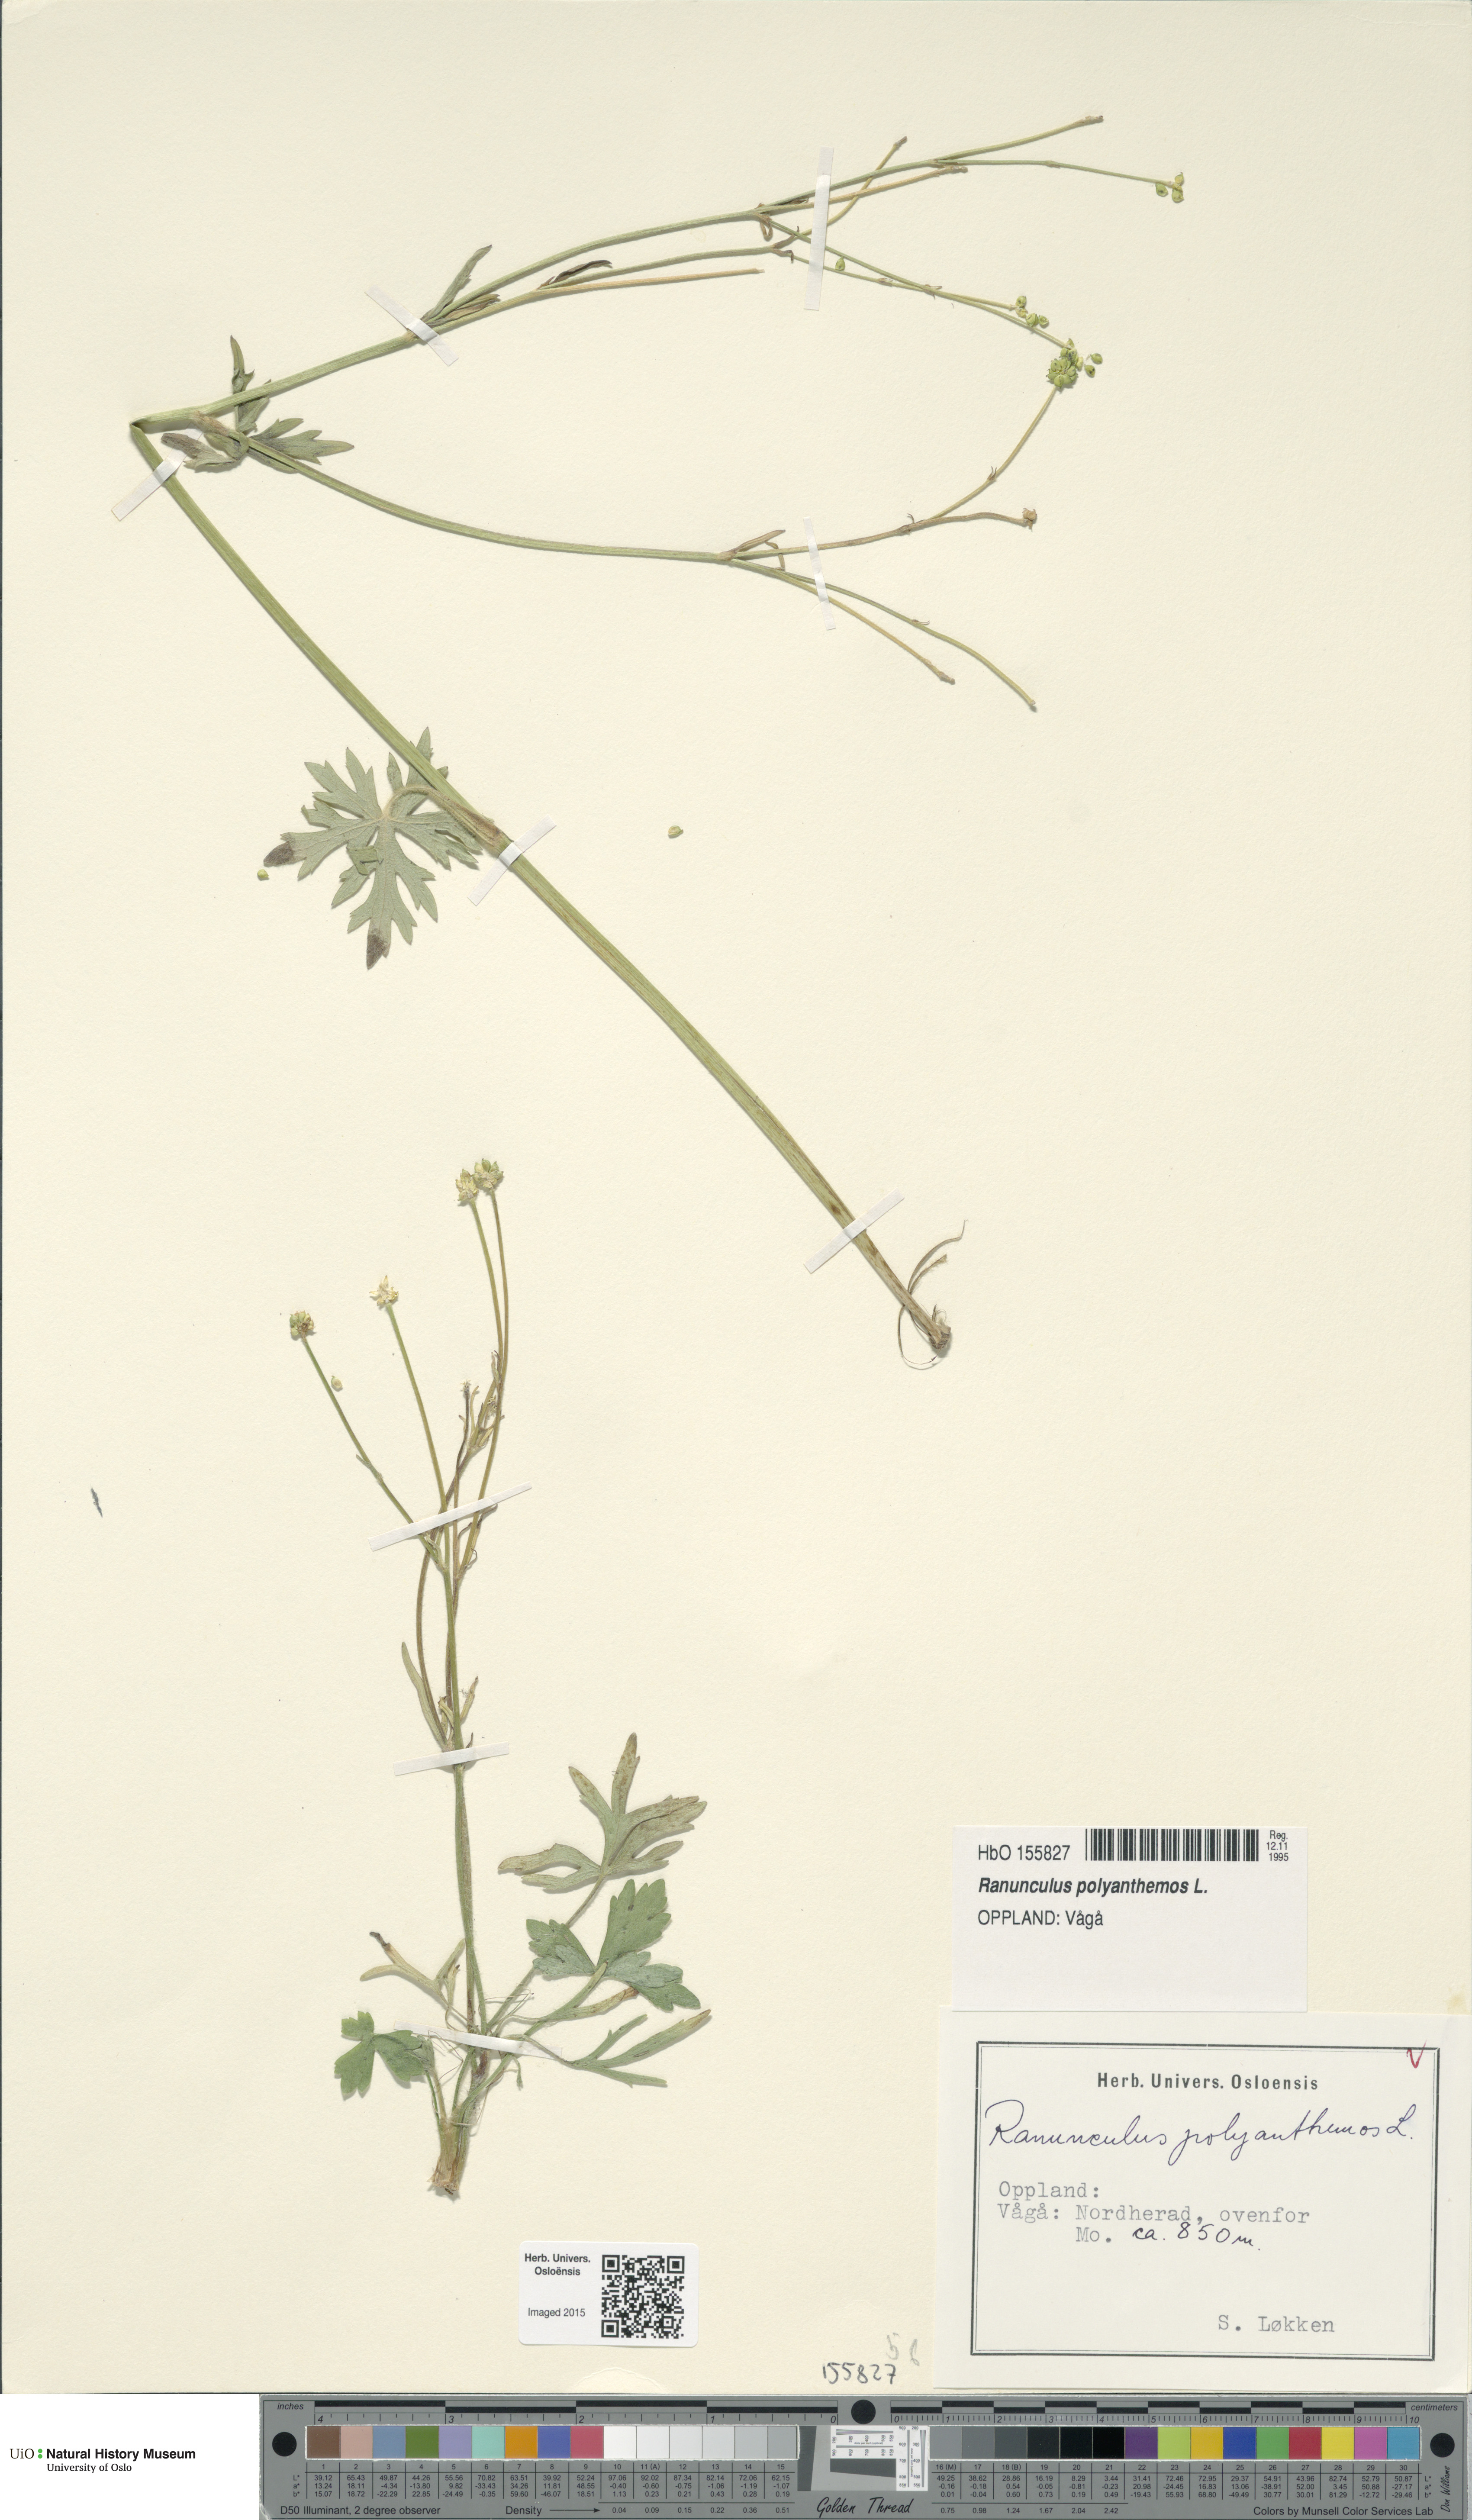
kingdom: Plantae
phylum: Tracheophyta
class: Magnoliopsida
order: Ranunculales
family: Ranunculaceae
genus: Ranunculus
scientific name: Ranunculus polyanthemos
